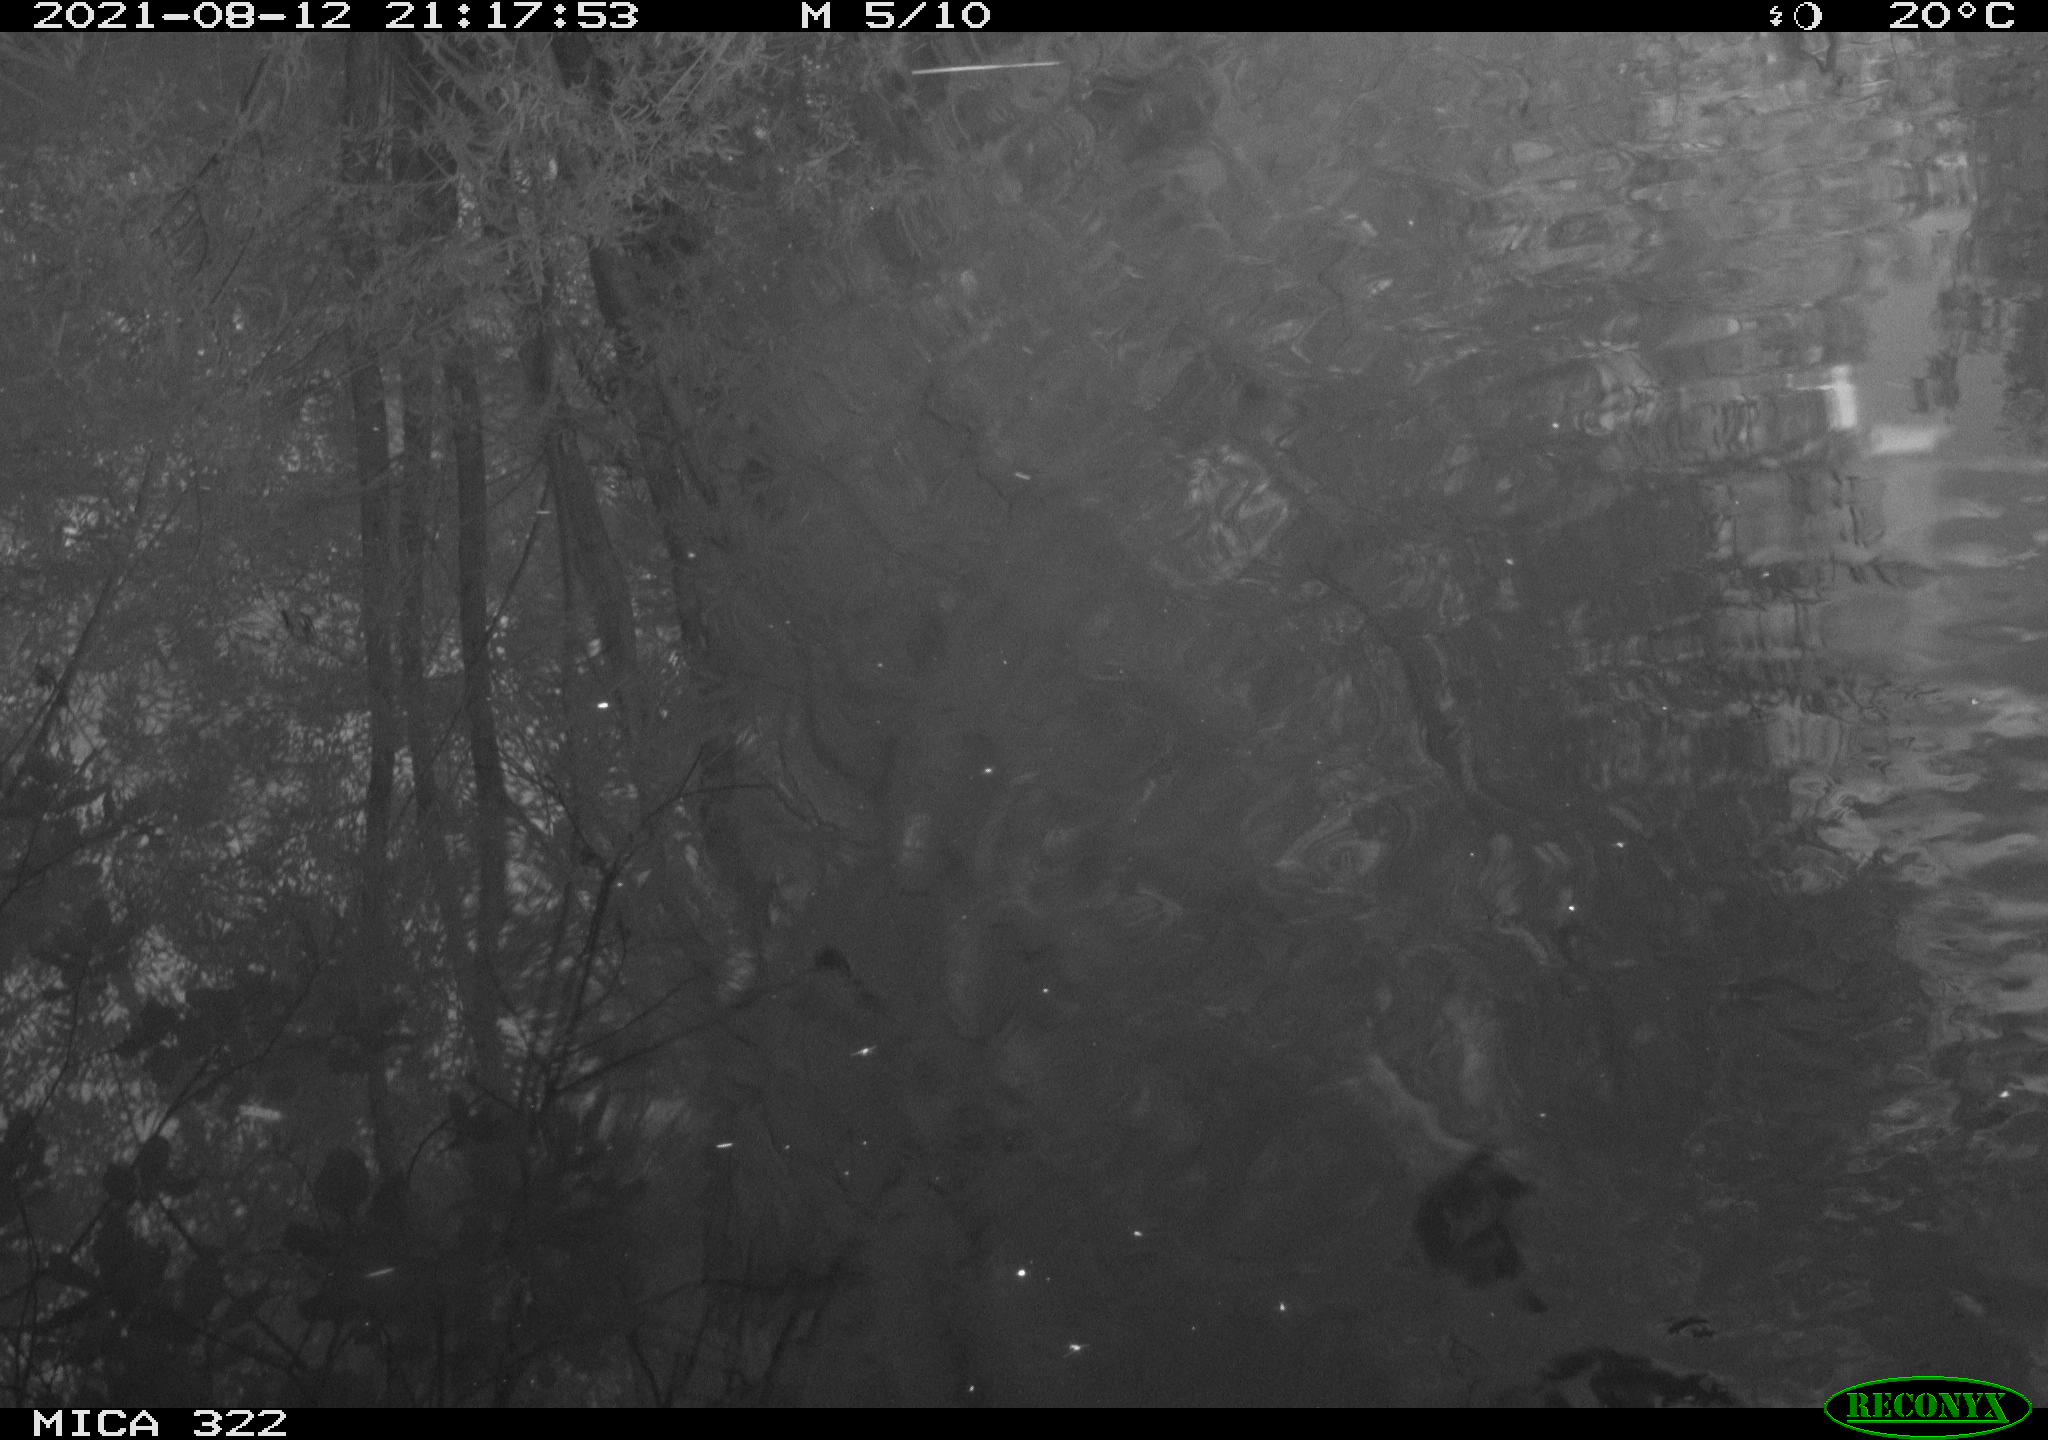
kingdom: Animalia
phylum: Chordata
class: Mammalia
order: Rodentia
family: Muridae
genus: Rattus
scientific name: Rattus norvegicus
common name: Brown rat
